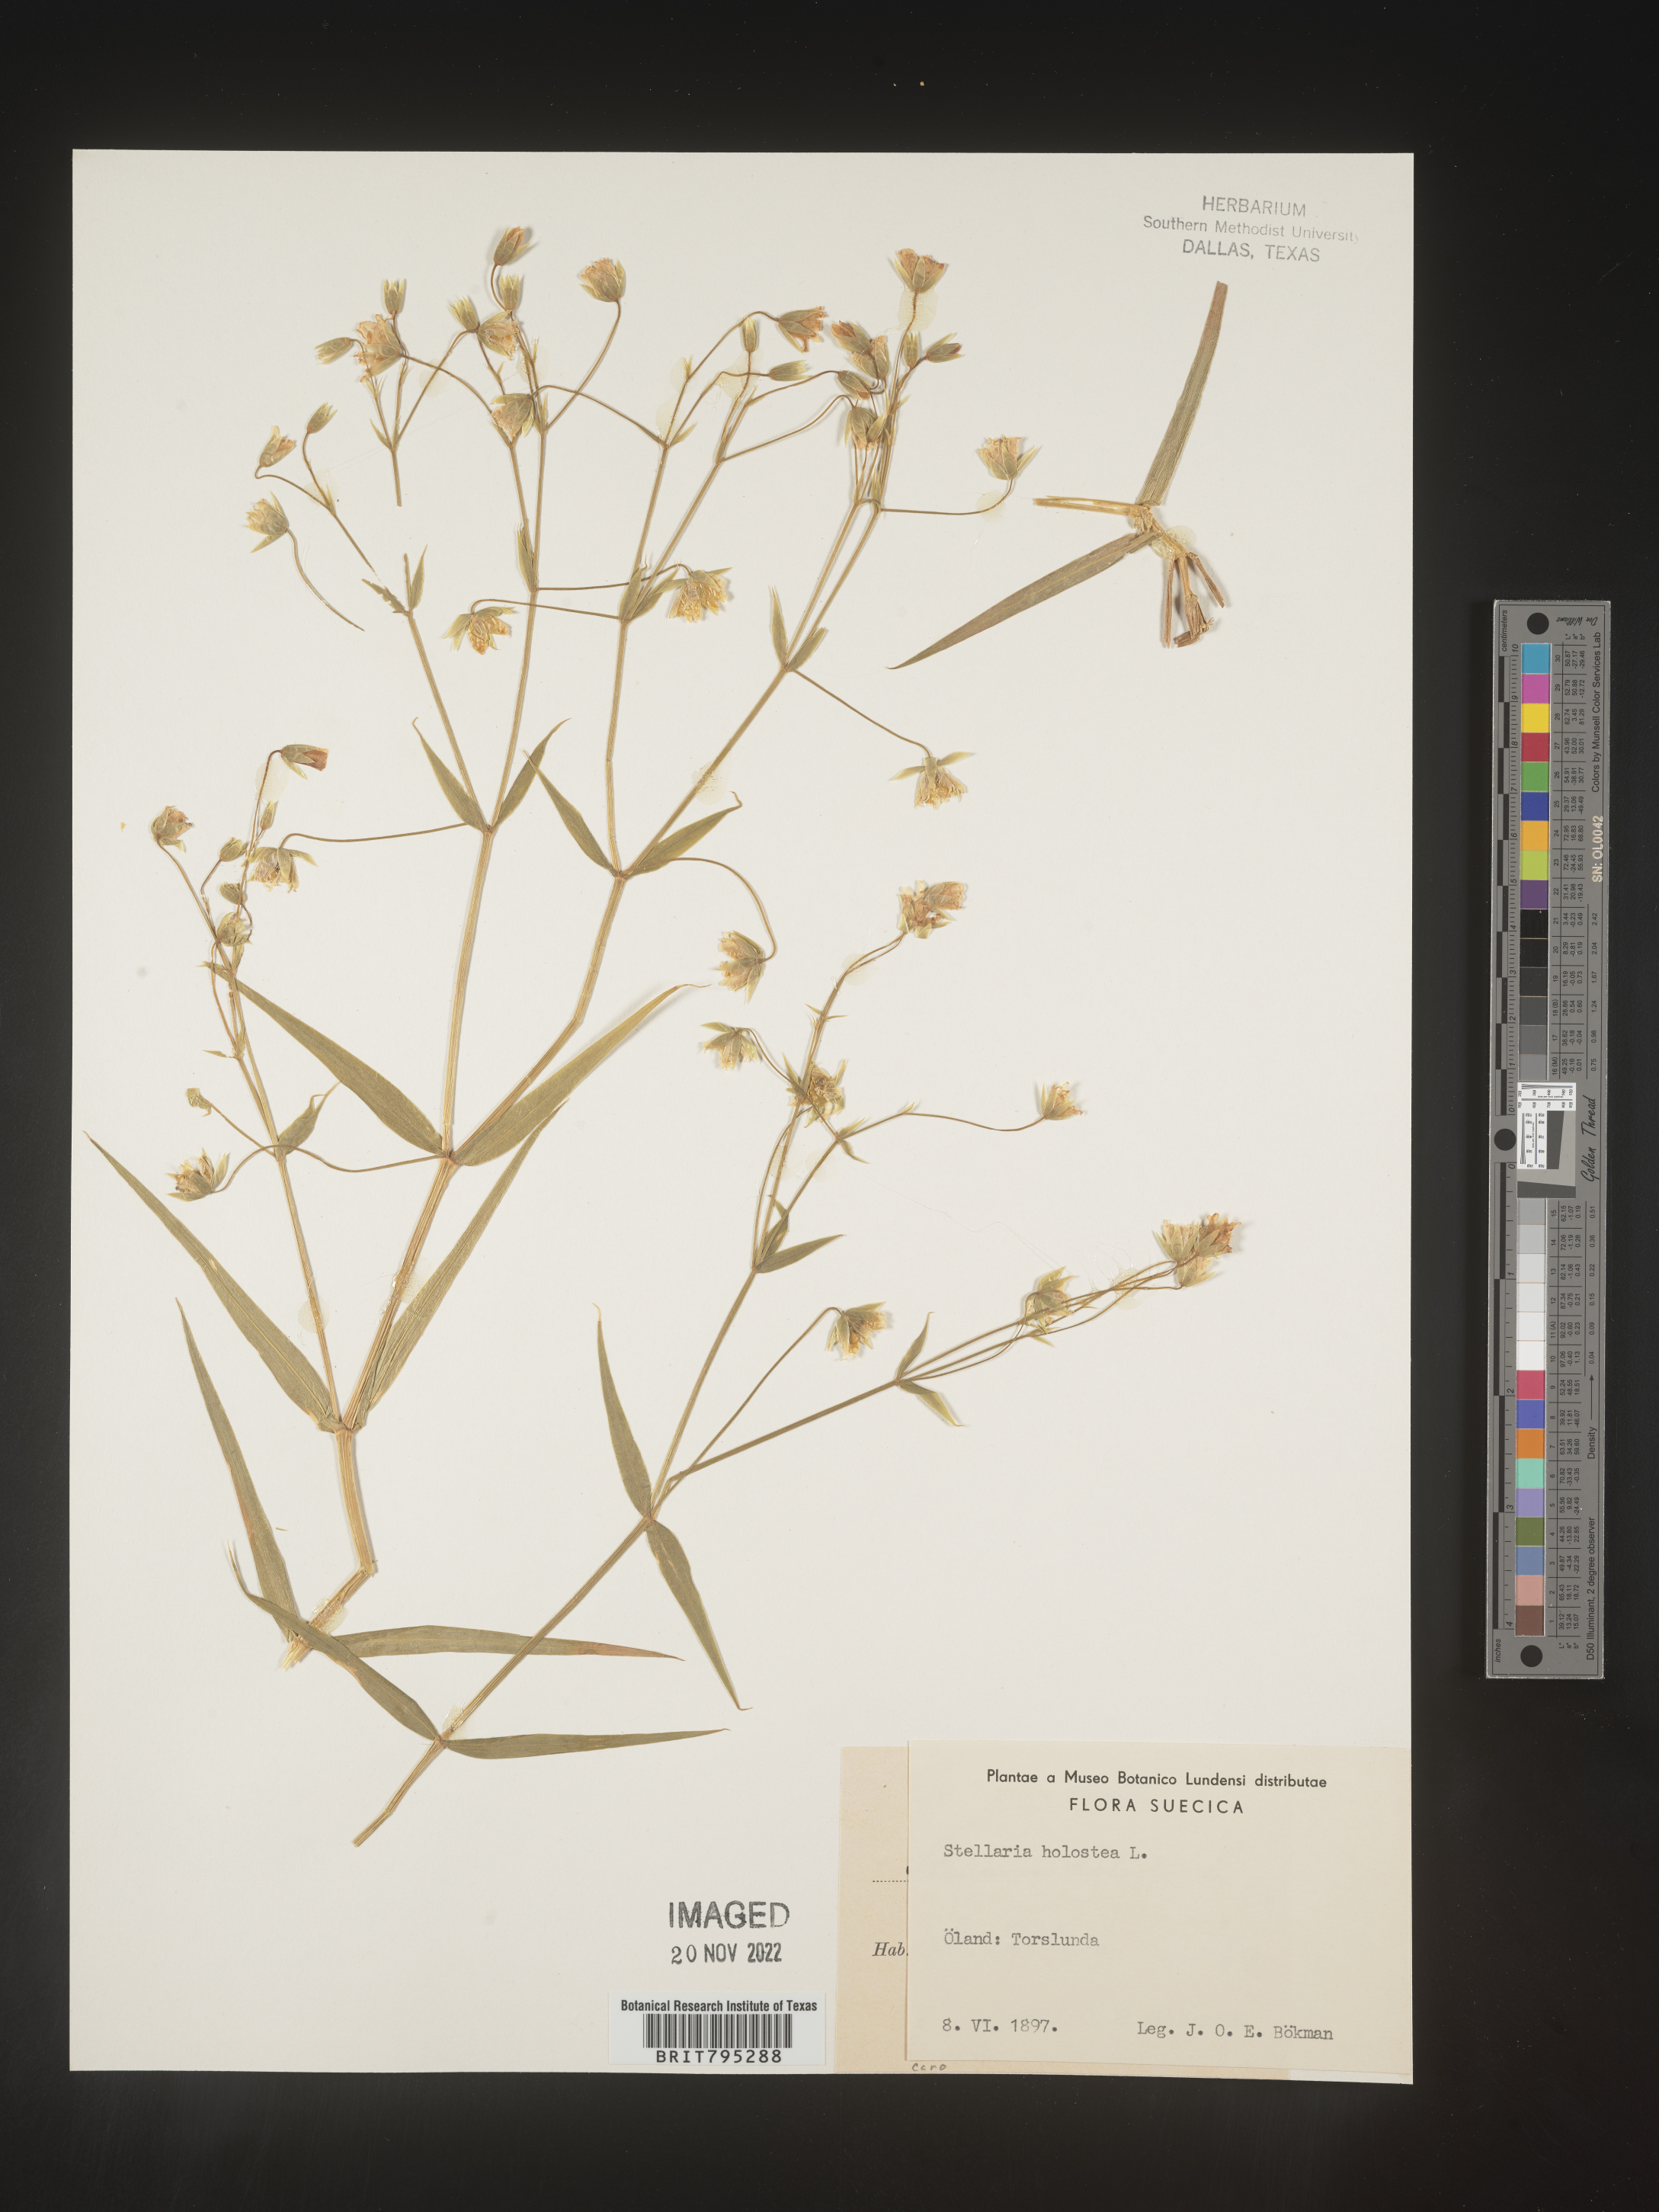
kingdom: Plantae
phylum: Tracheophyta
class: Magnoliopsida
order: Caryophyllales
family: Caryophyllaceae
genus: Stellaria
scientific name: Stellaria
